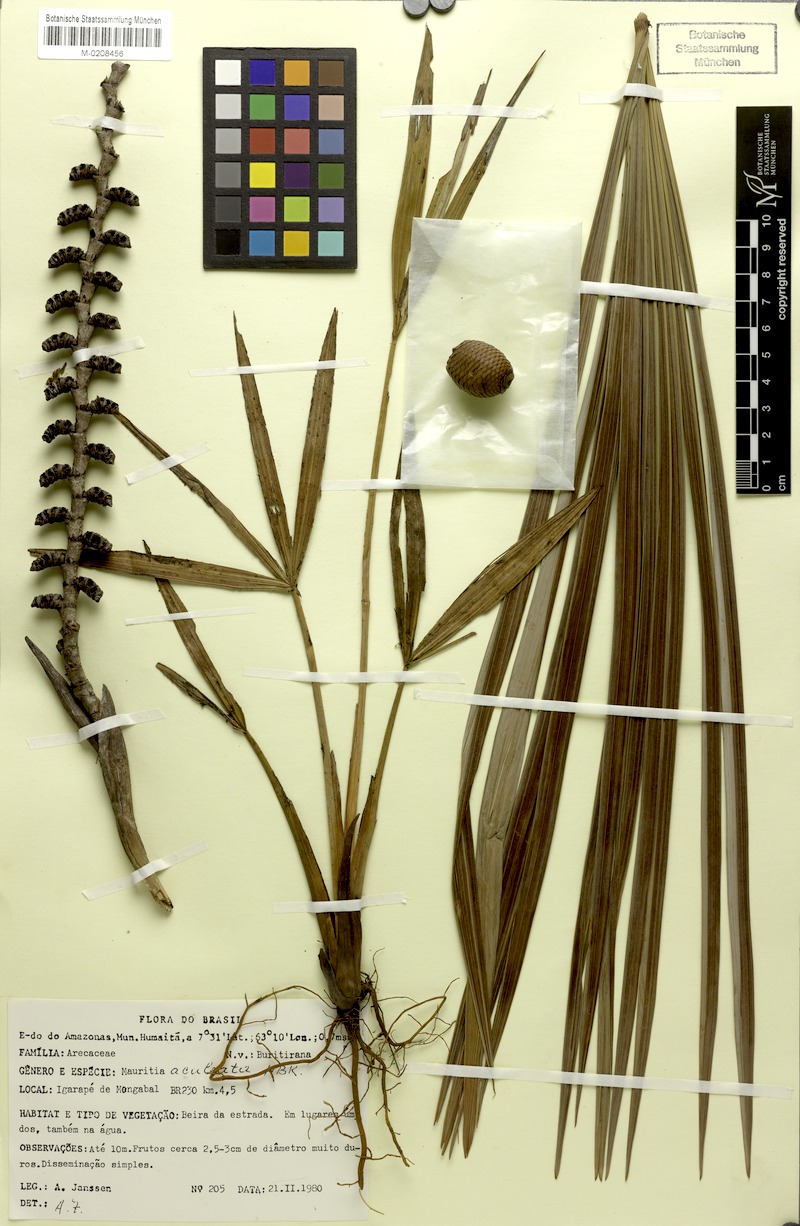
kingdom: Plantae
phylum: Tracheophyta
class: Liliopsida
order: Arecales
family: Arecaceae
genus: Mauritiella
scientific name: Mauritiella aculeata
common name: Buritirana
